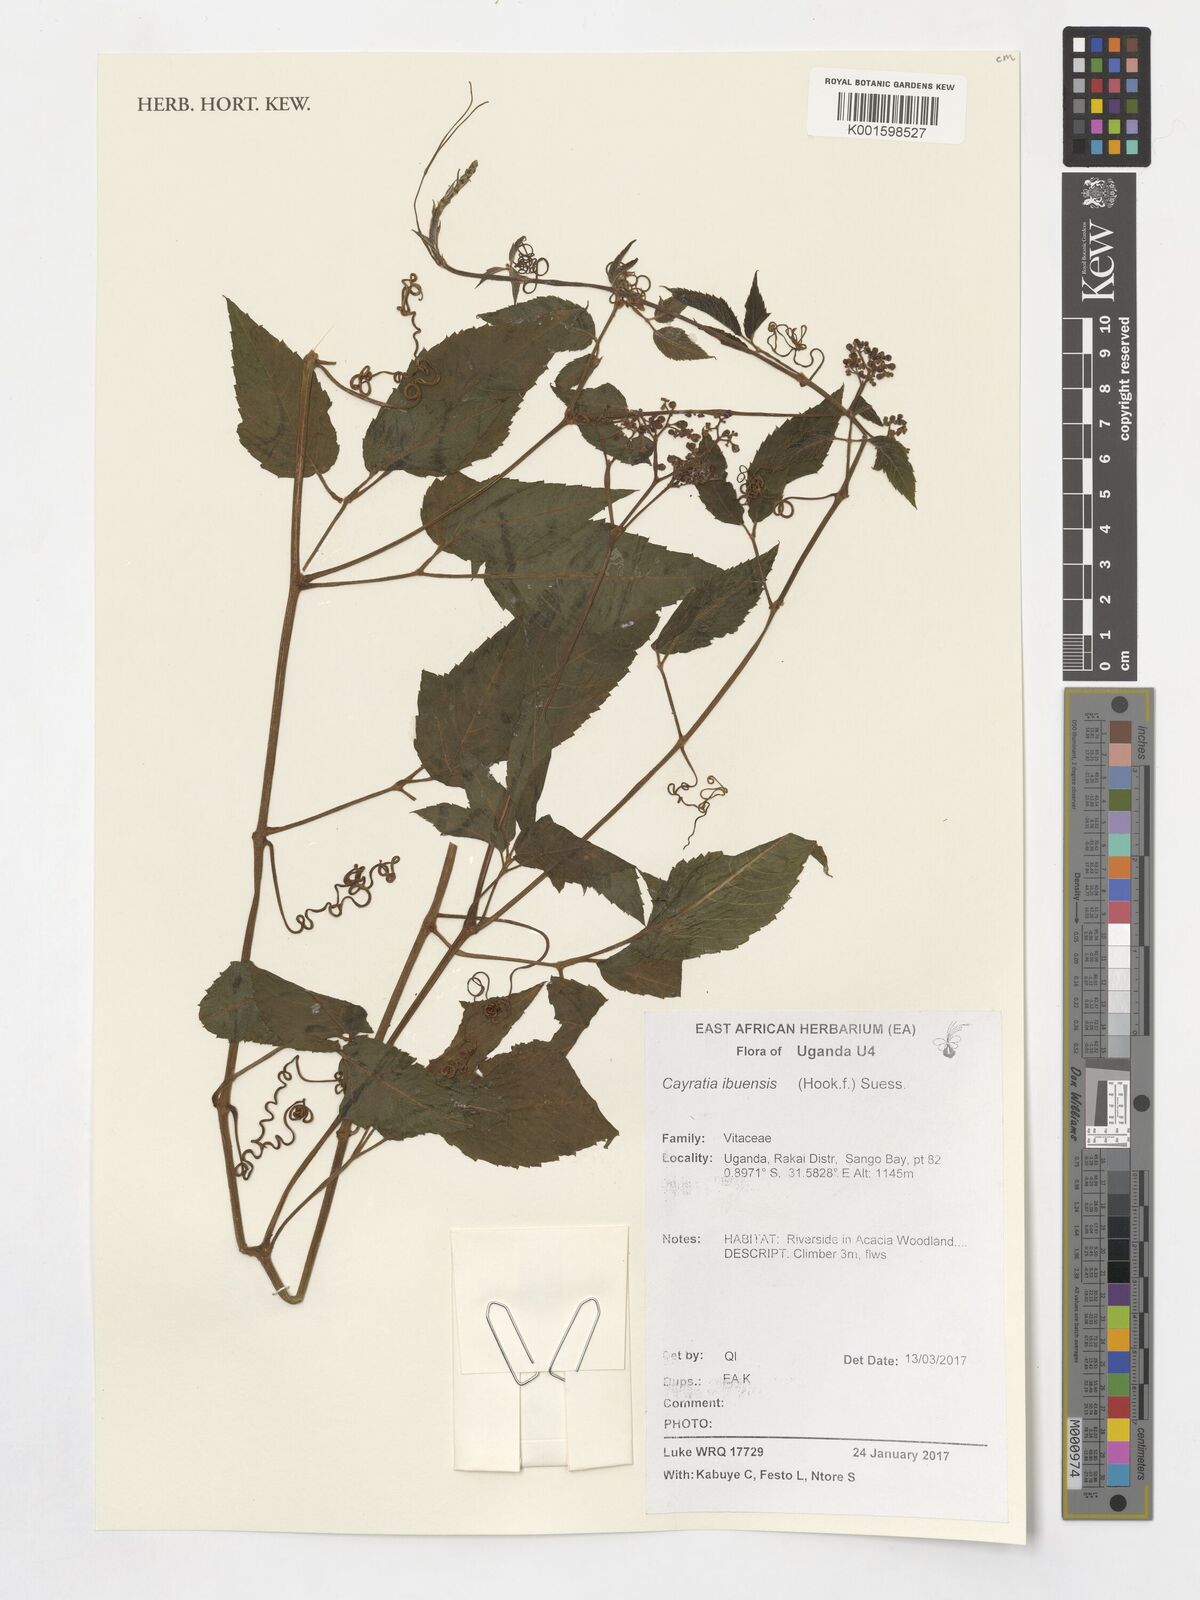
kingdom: Plantae
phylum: Tracheophyta
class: Magnoliopsida
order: Vitales
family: Vitaceae
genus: Afrocayratia
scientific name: Afrocayratia ibuensis
